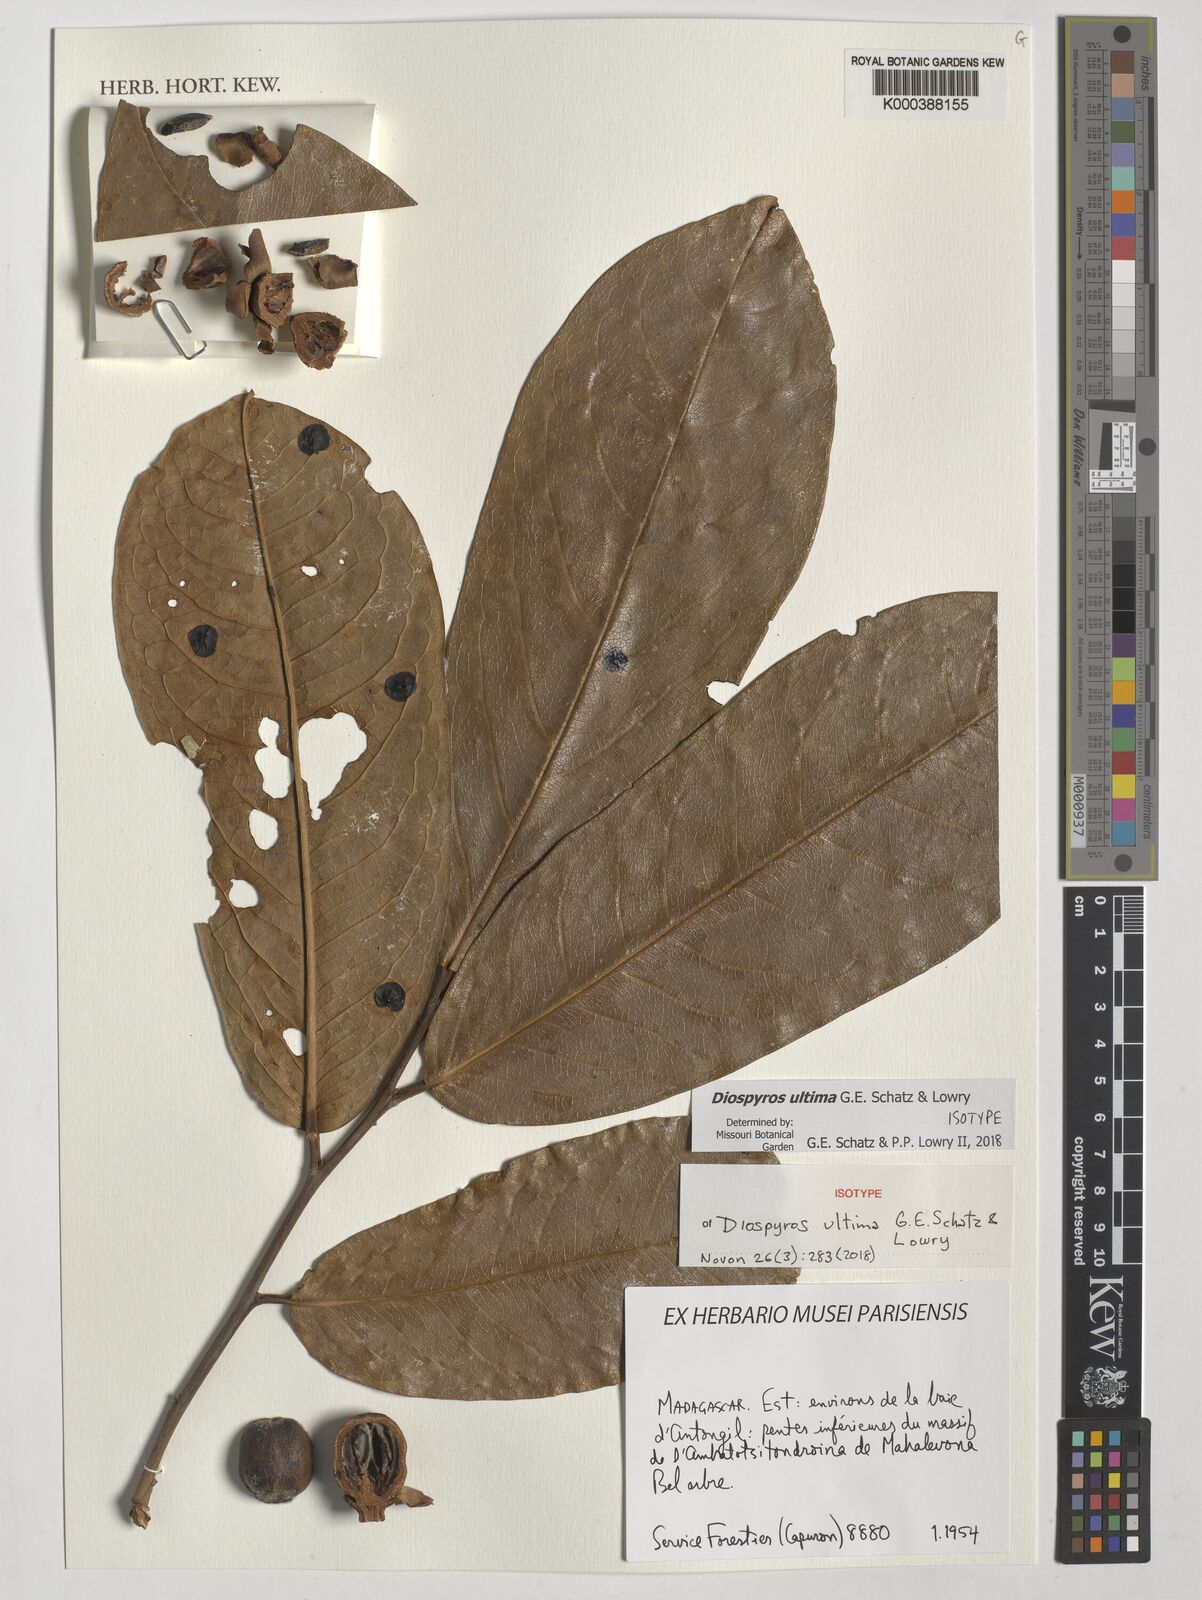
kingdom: Plantae
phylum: Tracheophyta
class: Magnoliopsida
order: Ericales
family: Ebenaceae
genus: Diospyros
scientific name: Diospyros ultima
